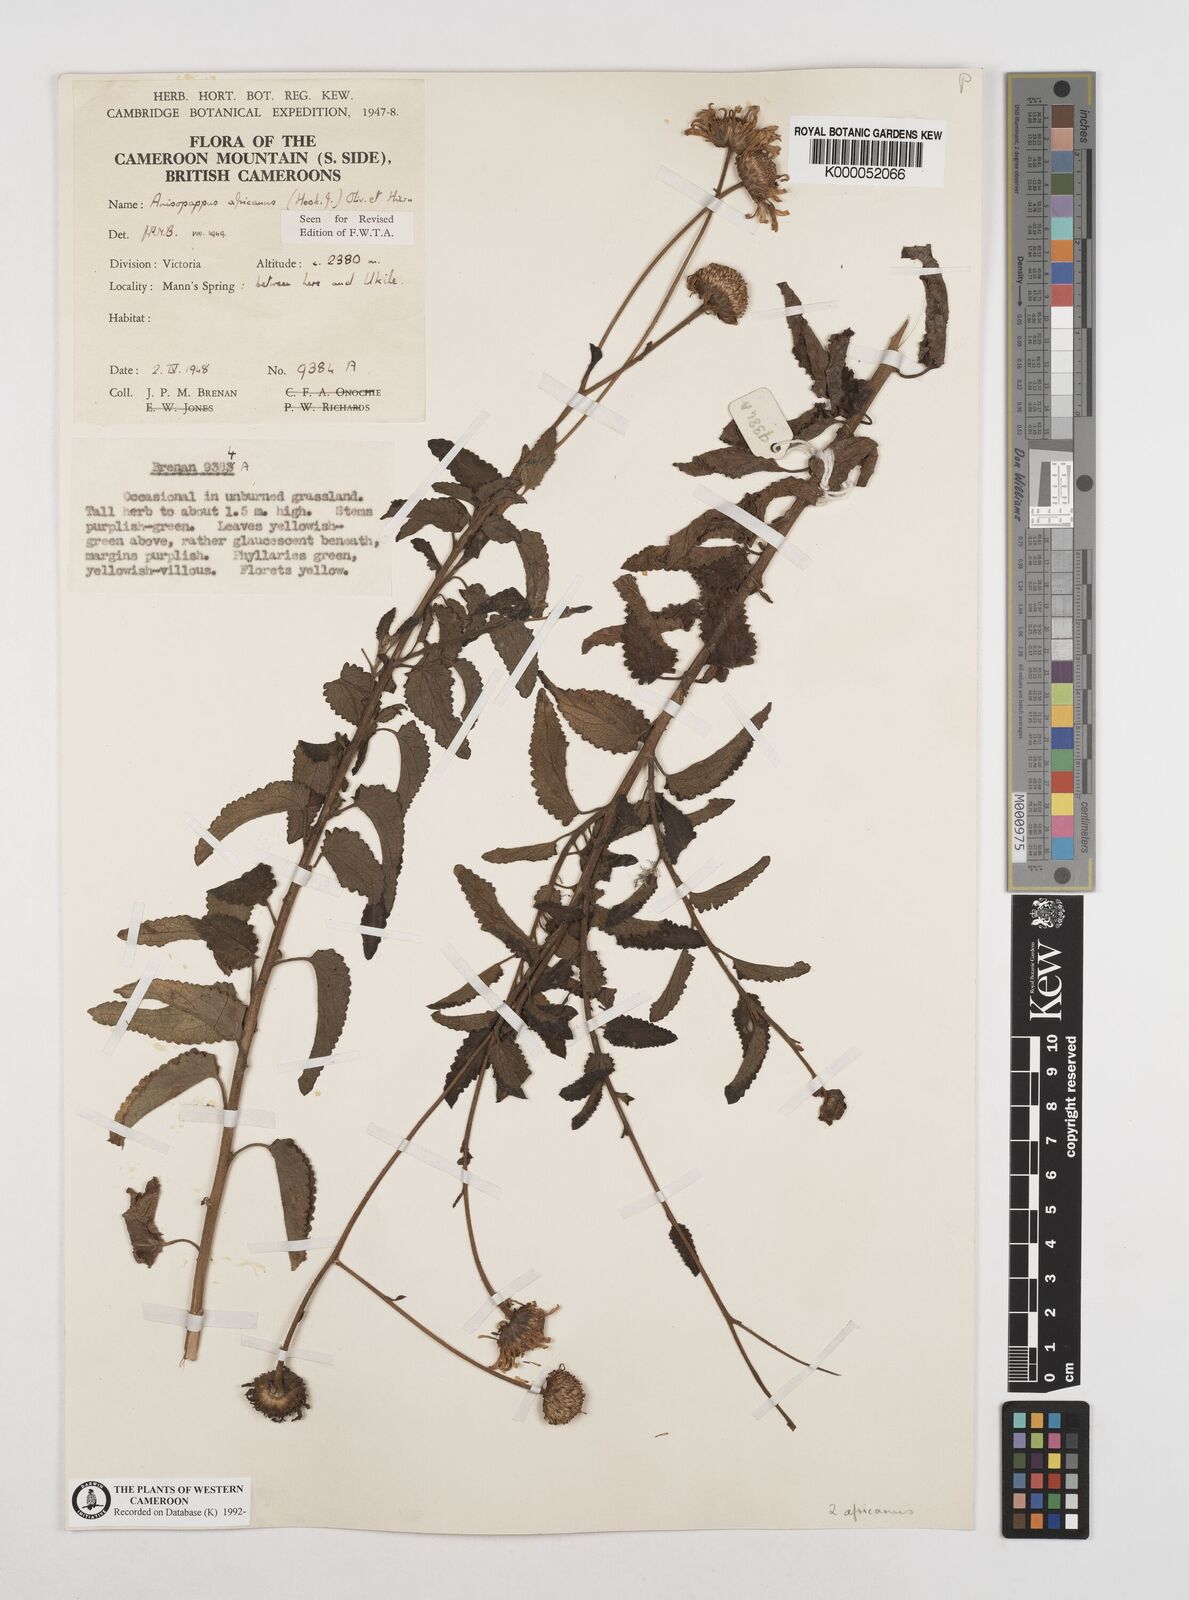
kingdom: Plantae
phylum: Tracheophyta
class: Magnoliopsida
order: Asterales
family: Asteraceae
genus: Anisopappus
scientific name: Anisopappus africanus
